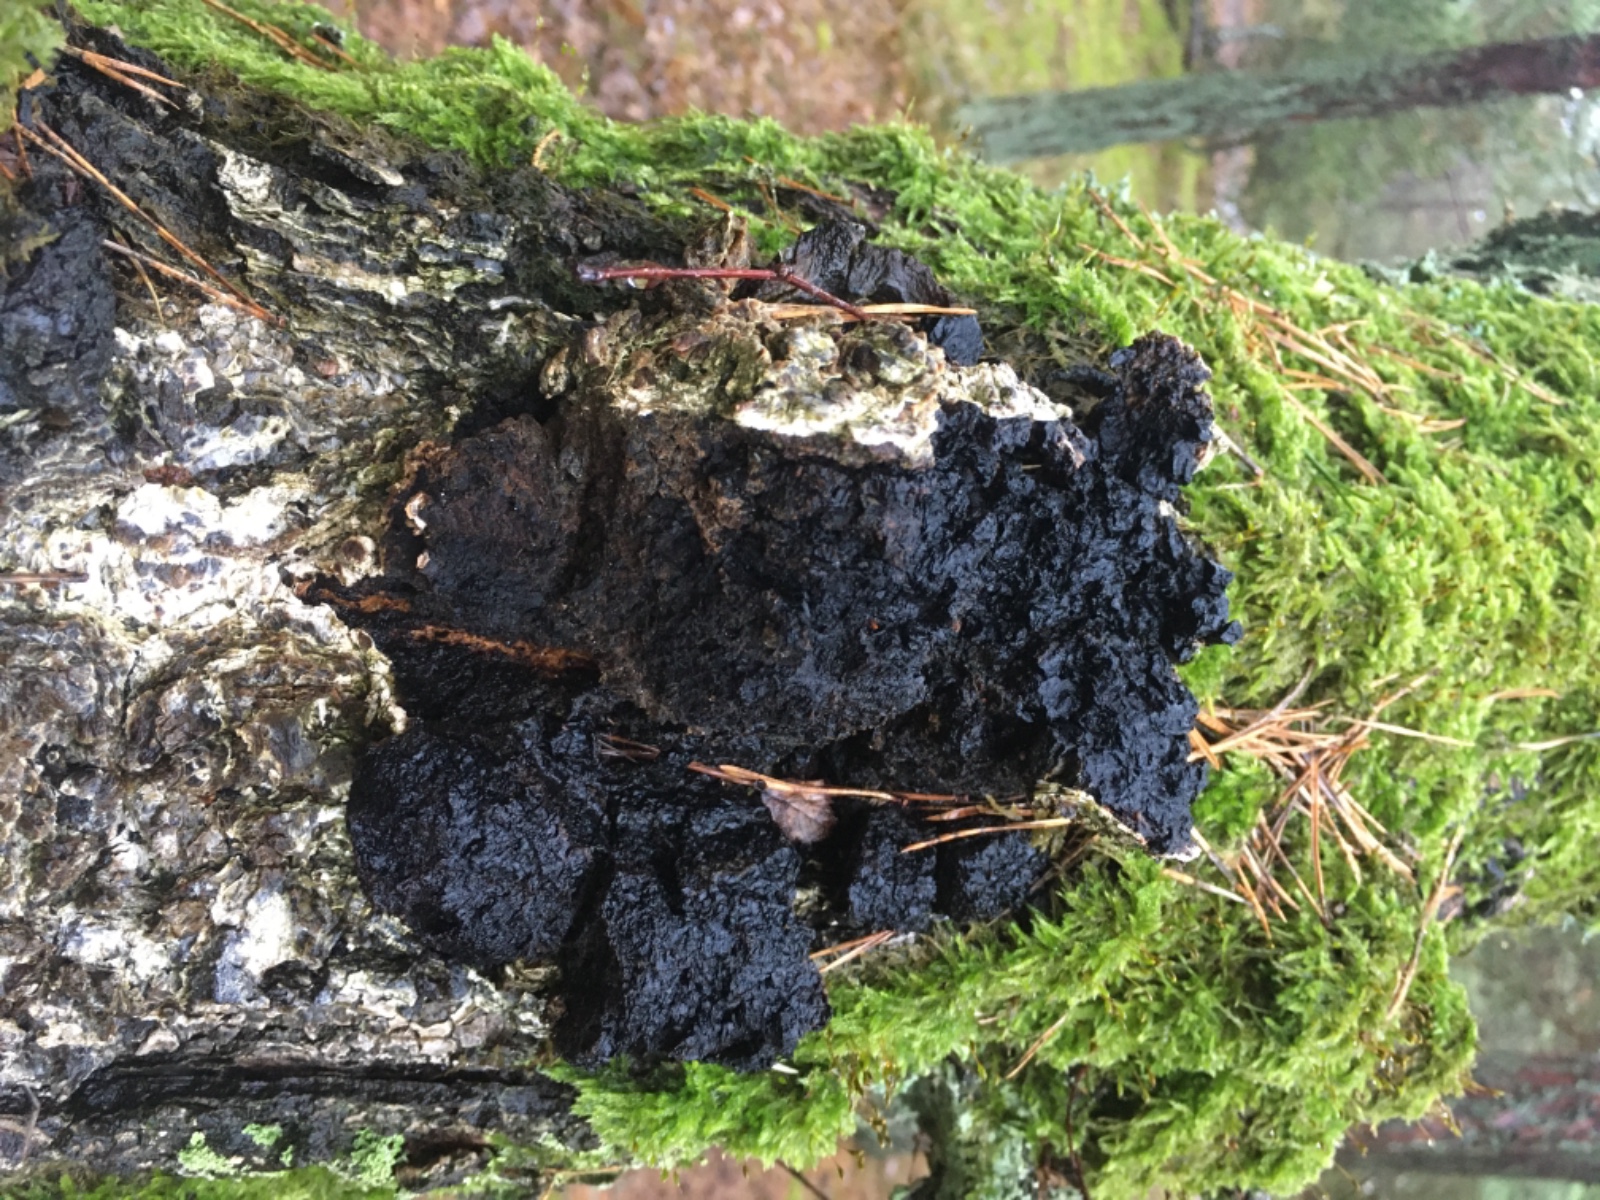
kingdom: Fungi
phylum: Basidiomycota
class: Agaricomycetes
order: Hymenochaetales
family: Hymenochaetaceae
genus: Inonotus
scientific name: Inonotus obliquus
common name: birke-spejlporesvamp
